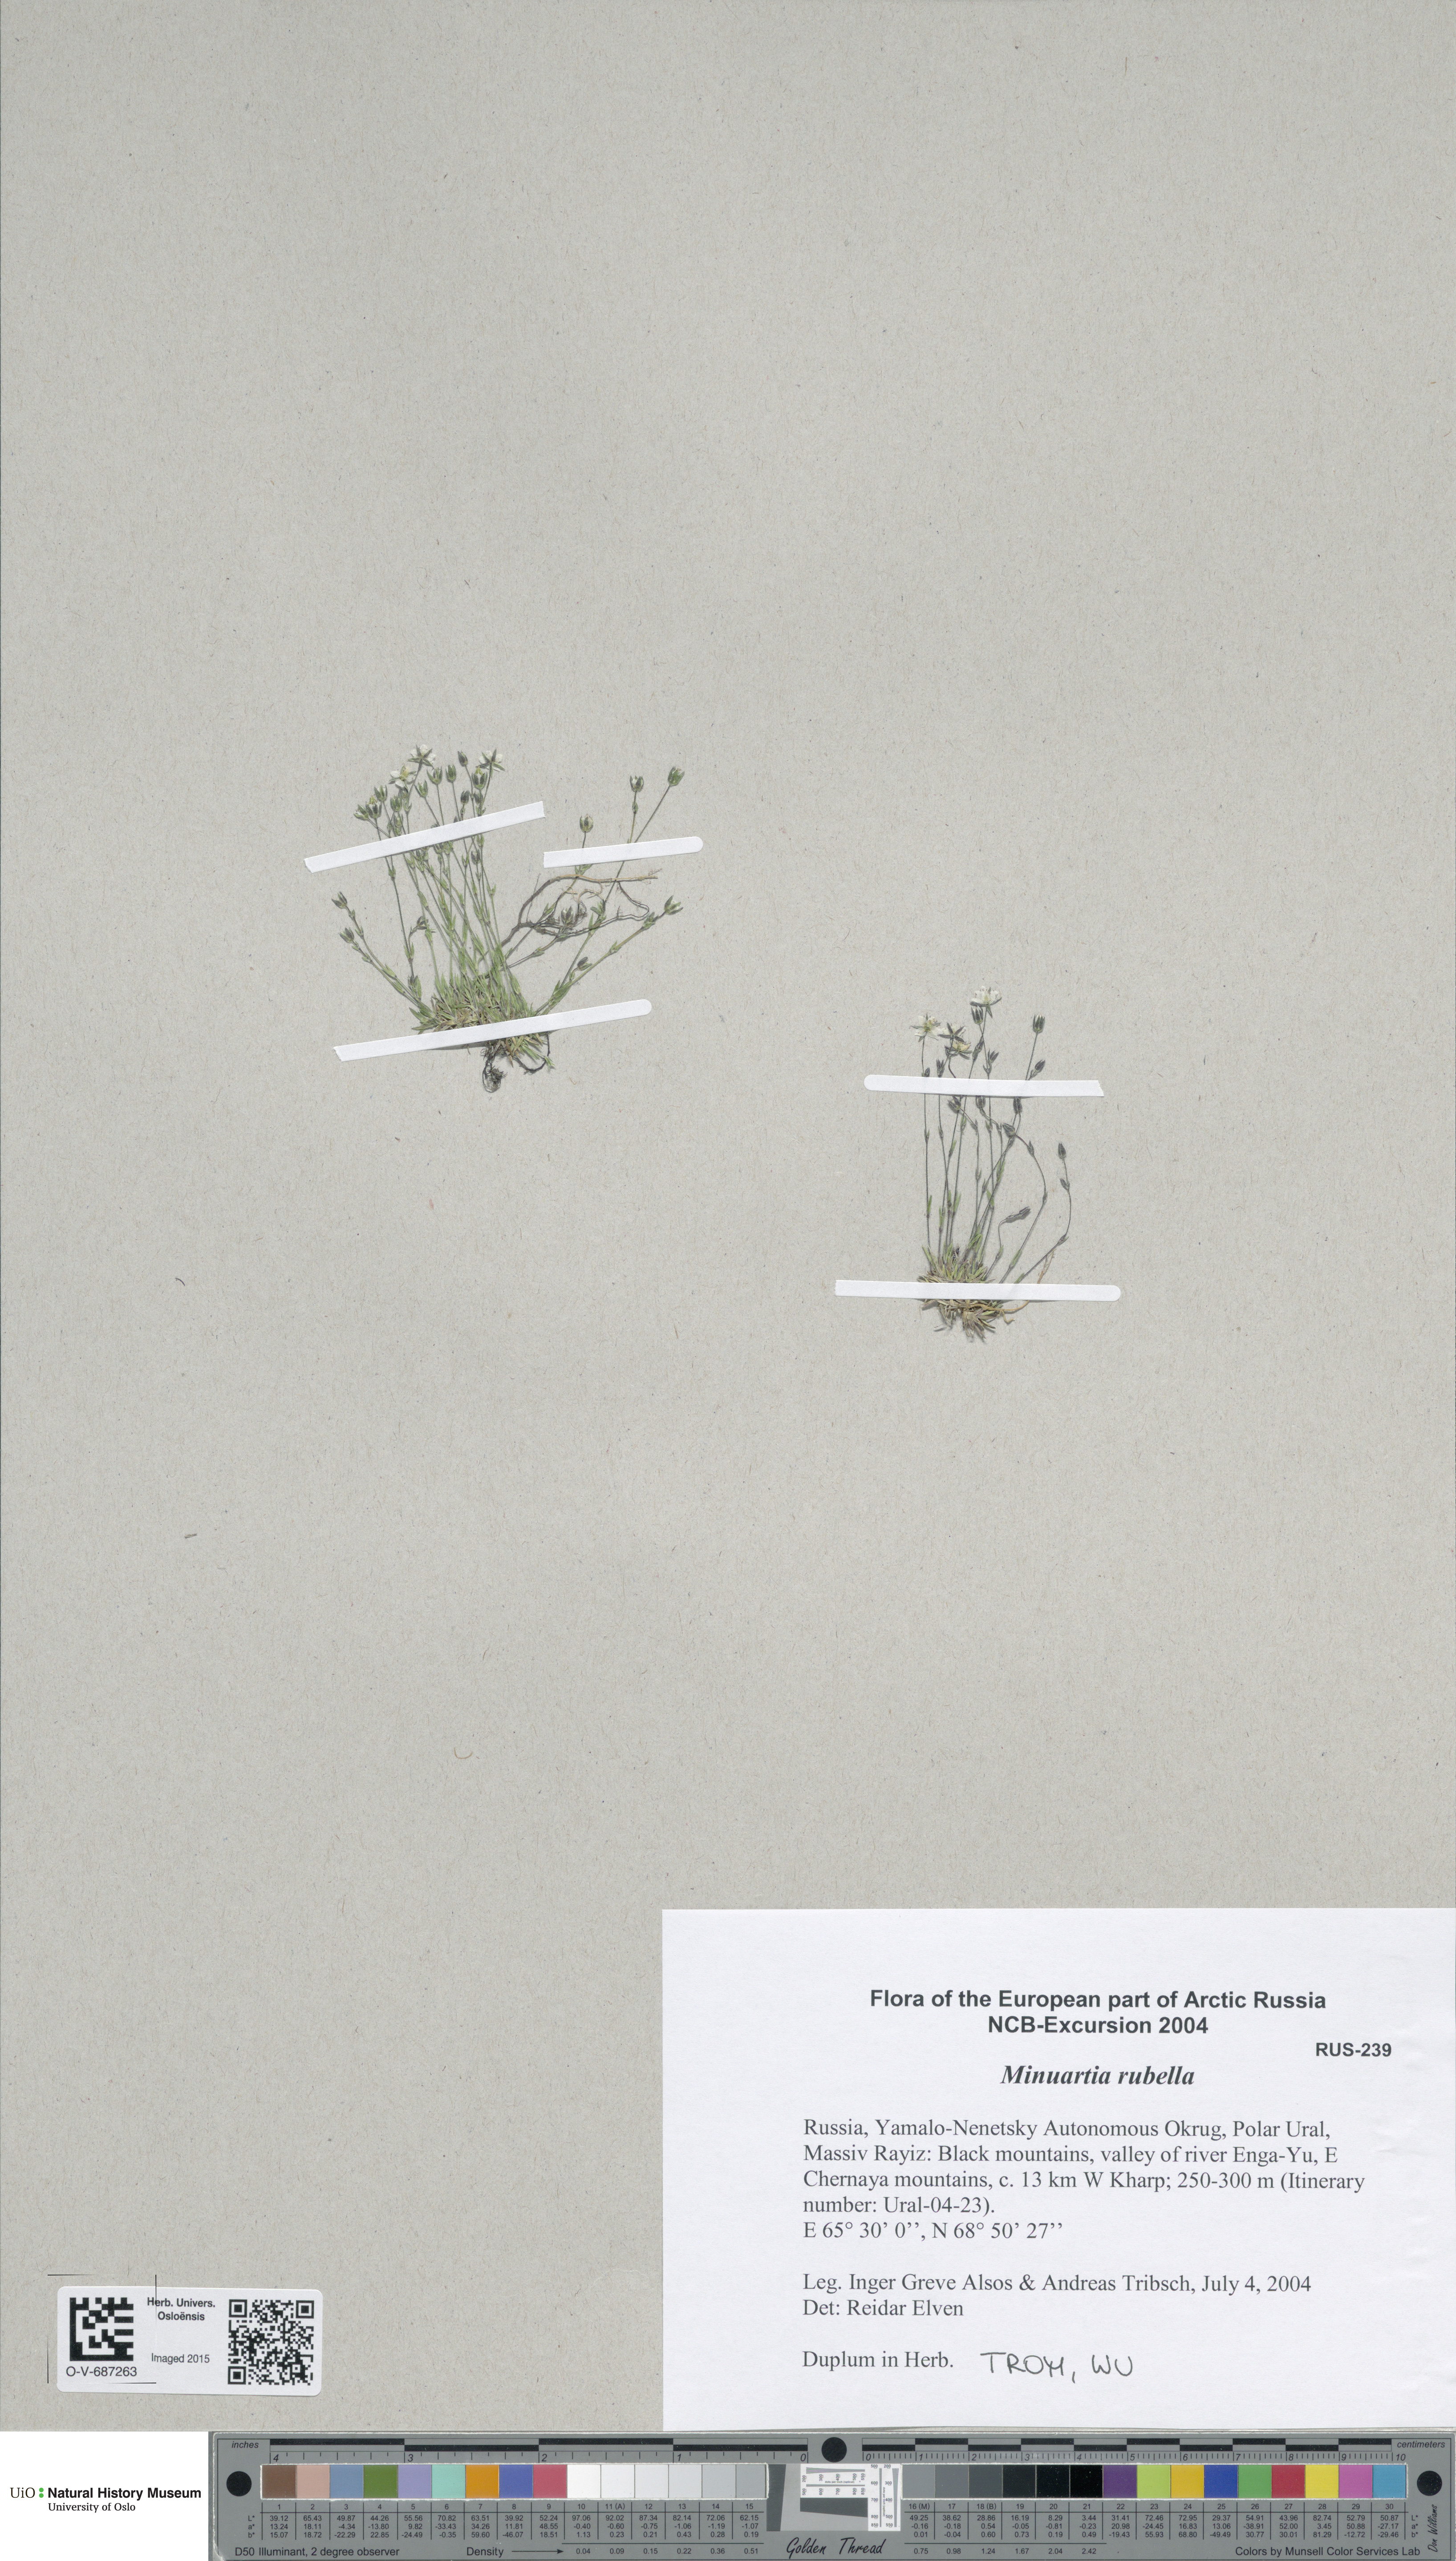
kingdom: Plantae
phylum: Tracheophyta
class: Magnoliopsida
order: Caryophyllales
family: Caryophyllaceae
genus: Sabulina
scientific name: Sabulina rubella
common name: Beautiful sandwort
